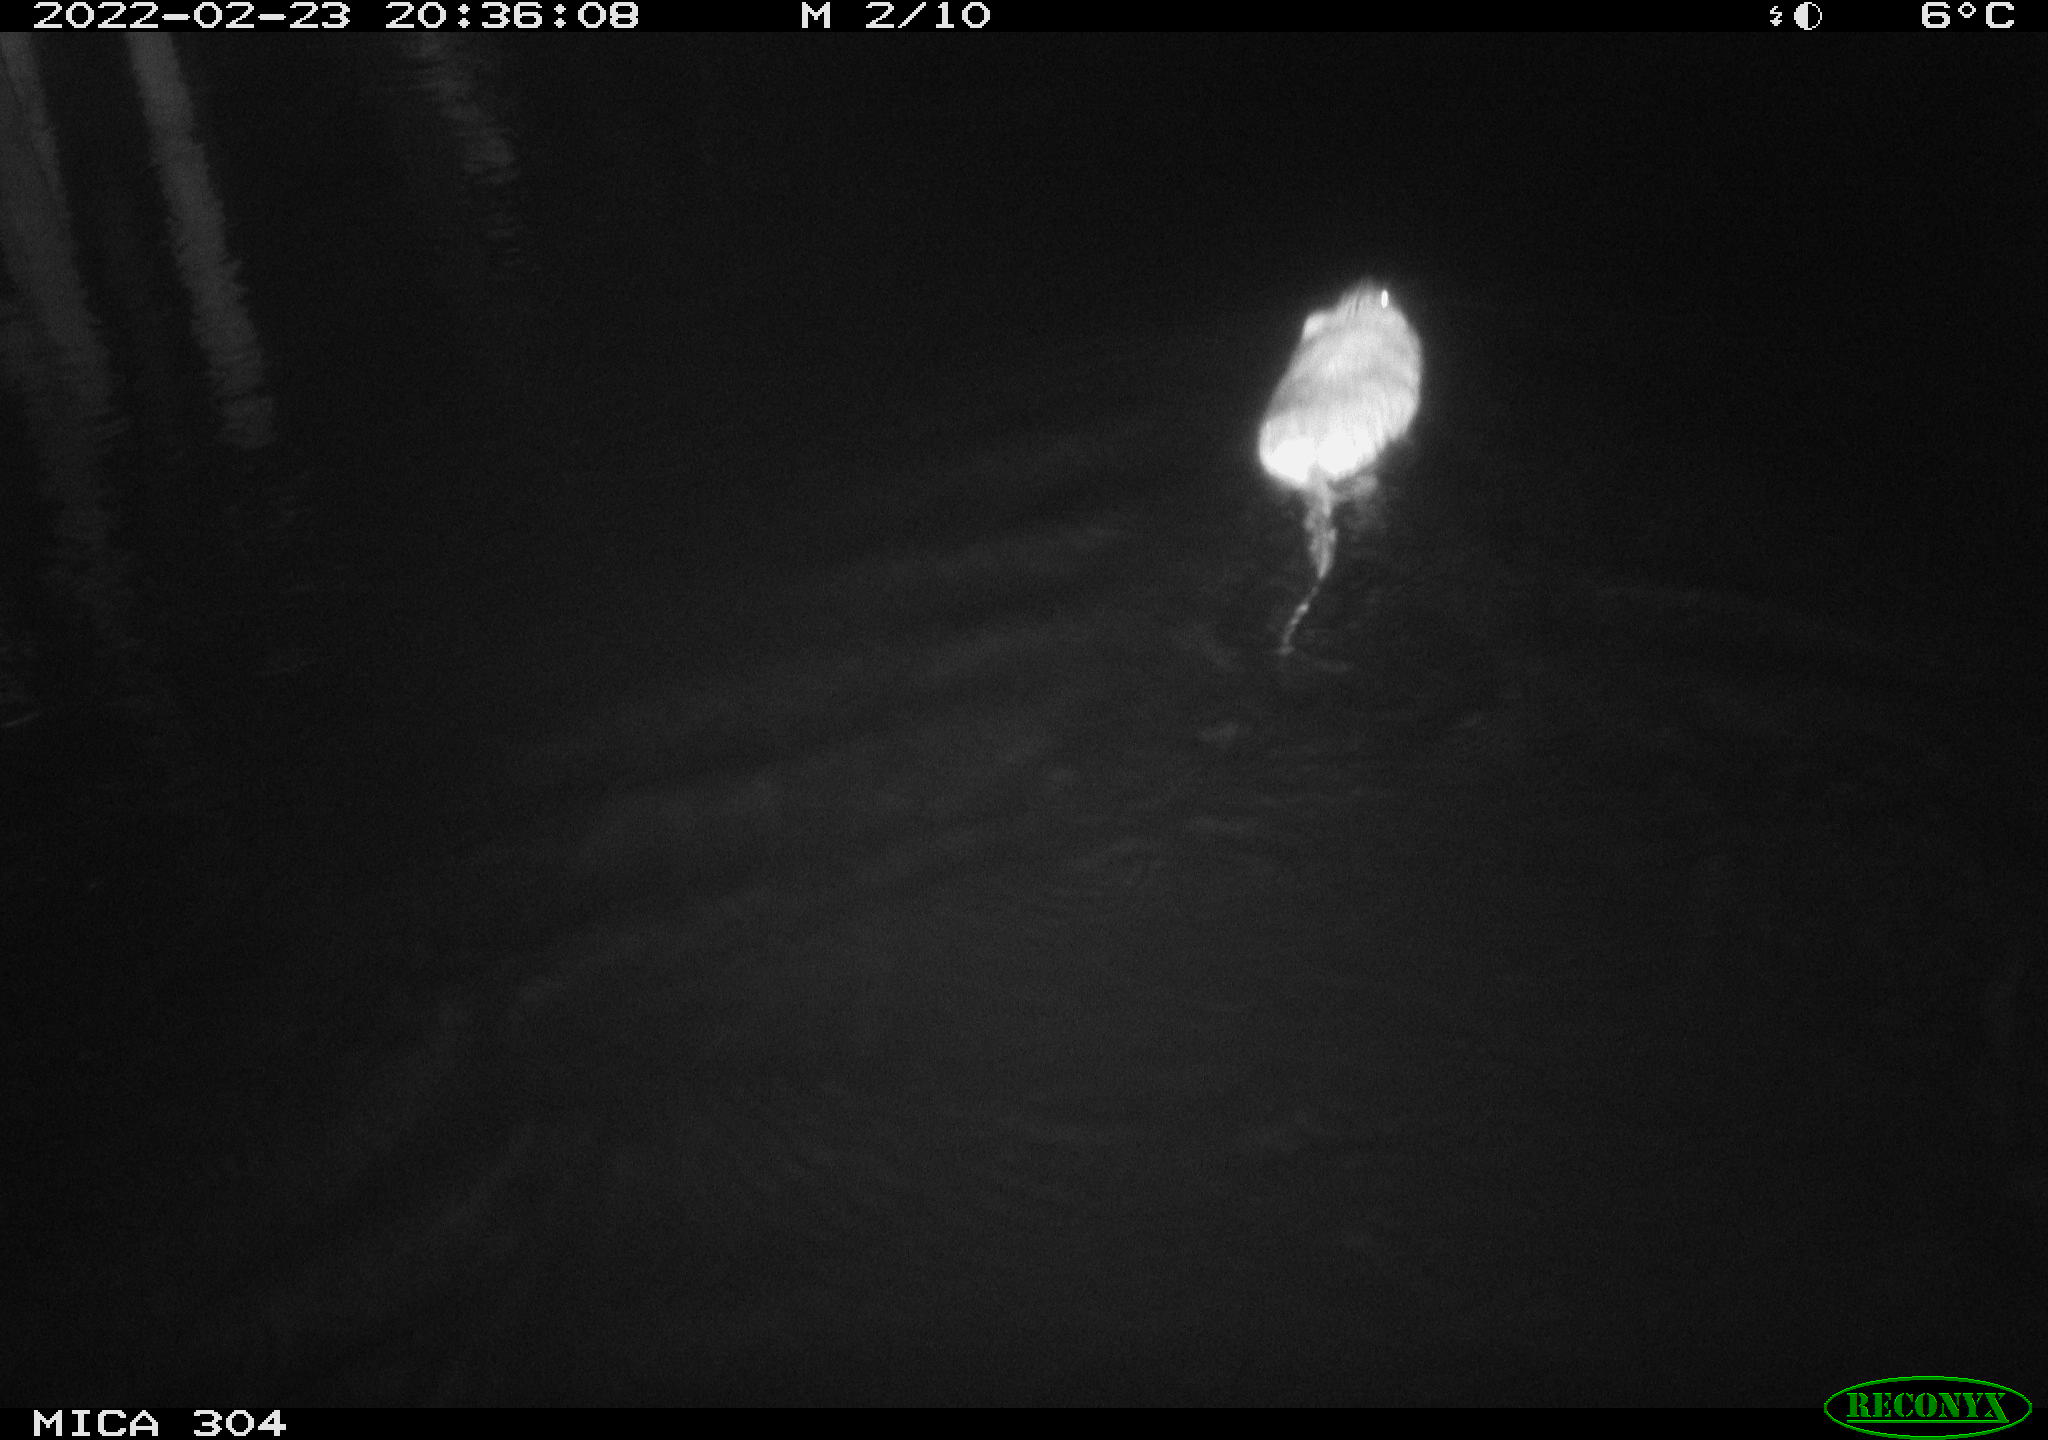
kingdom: Animalia
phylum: Chordata
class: Mammalia
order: Rodentia
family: Cricetidae
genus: Ondatra
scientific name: Ondatra zibethicus
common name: Muskrat
